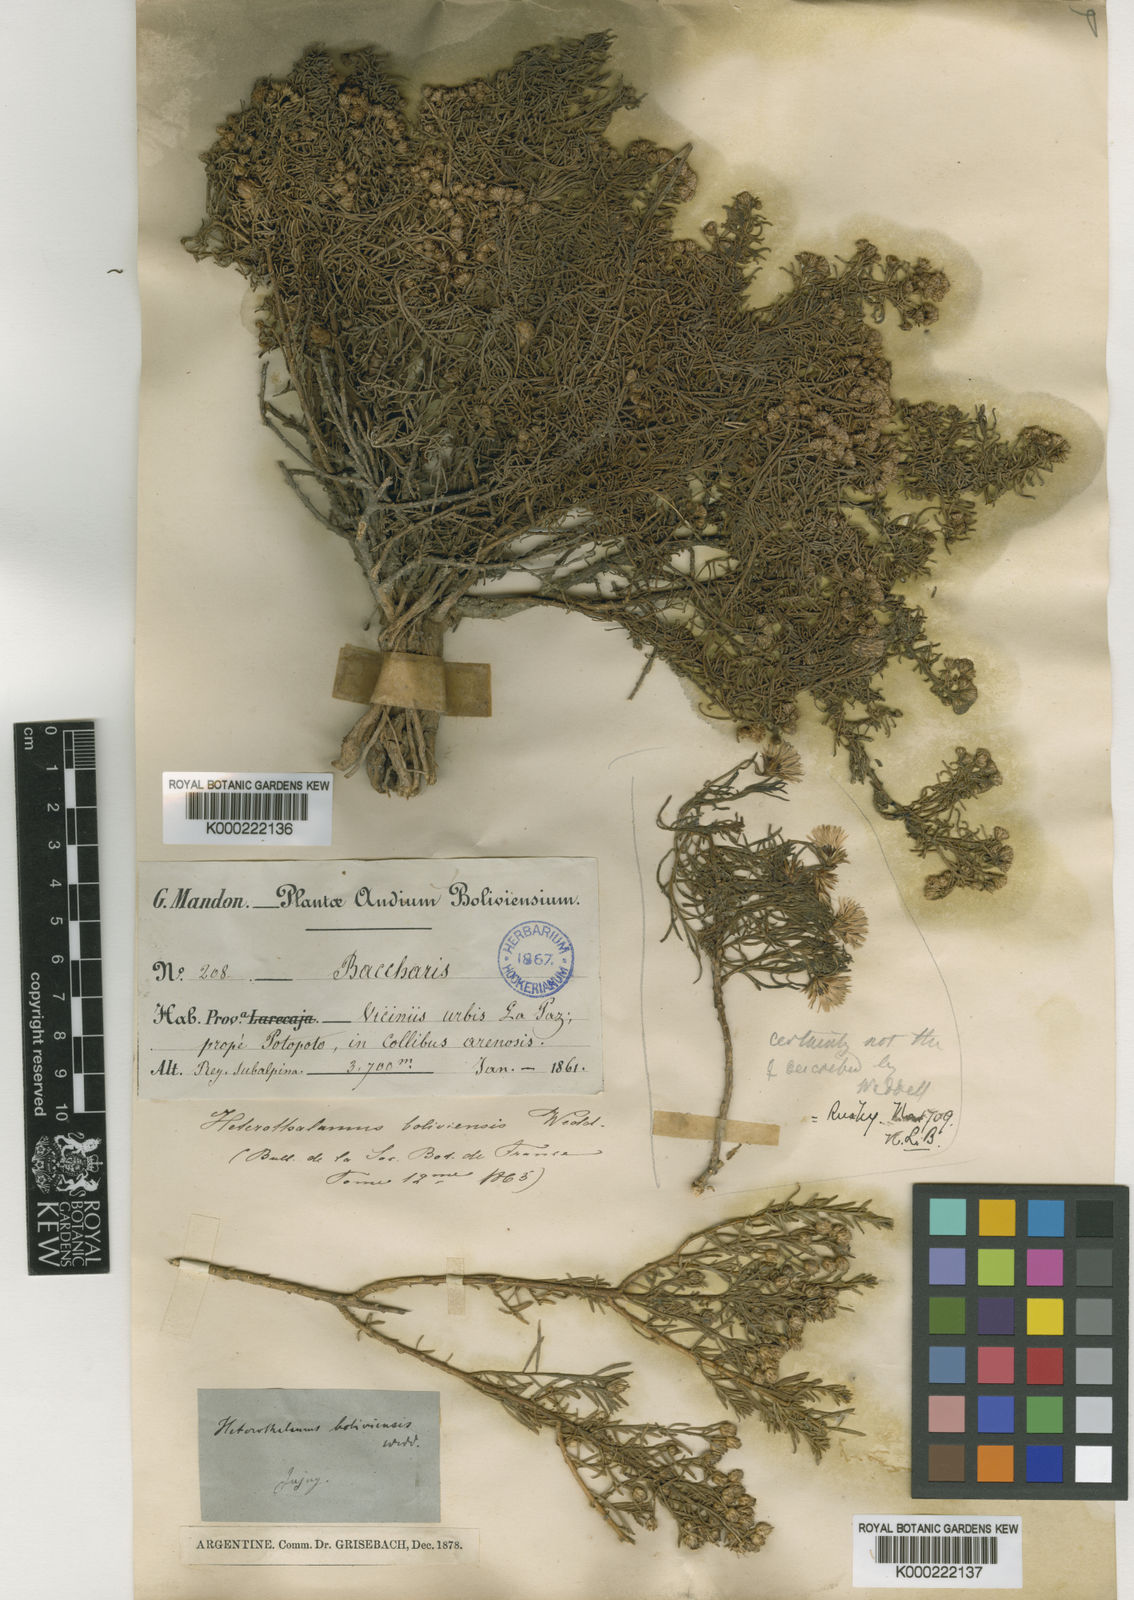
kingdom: Plantae
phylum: Tracheophyta
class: Magnoliopsida
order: Asterales
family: Asteraceae
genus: Baccharis
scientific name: Baccharis bolivensis
